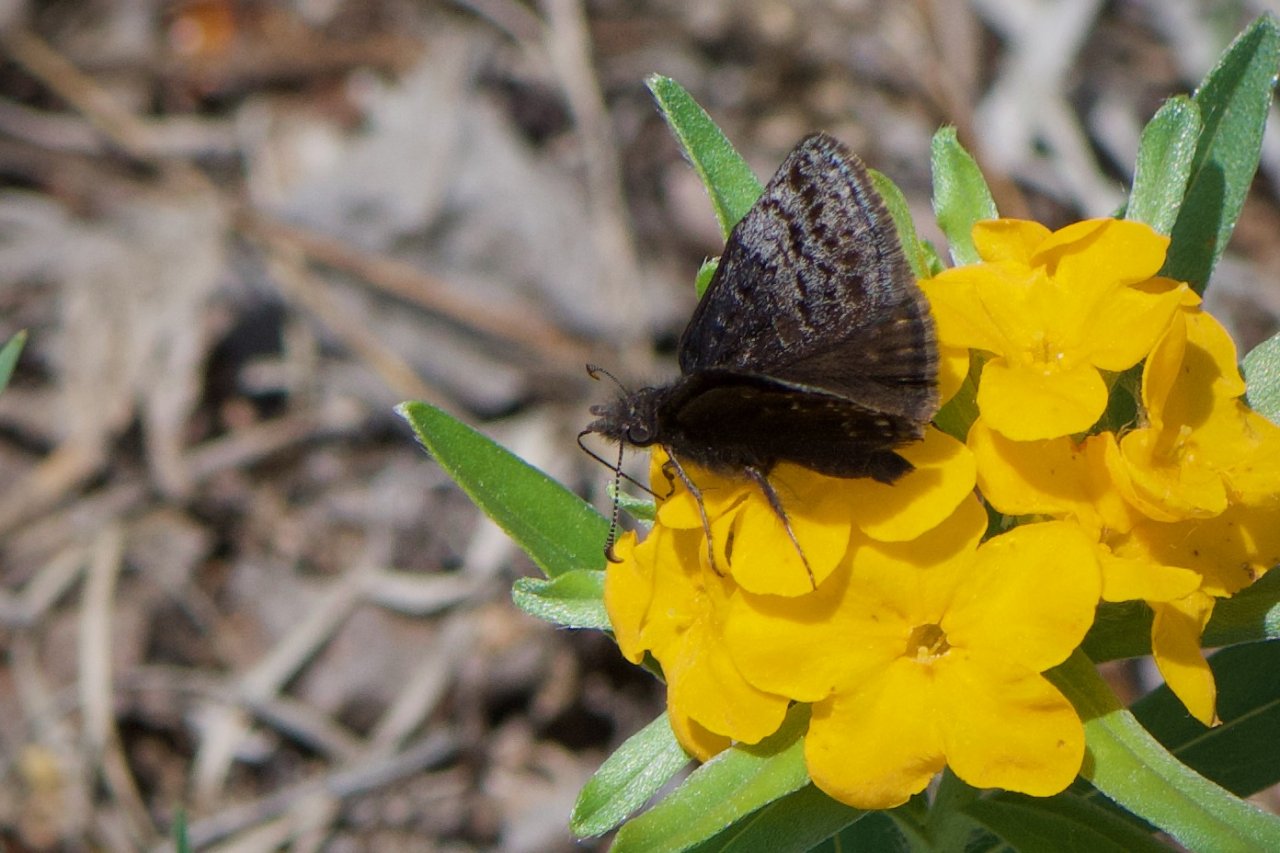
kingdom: Animalia
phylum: Arthropoda
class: Insecta
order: Lepidoptera
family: Hesperiidae
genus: Erynnis
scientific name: Erynnis icelus
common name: Dreamy Duskywing
